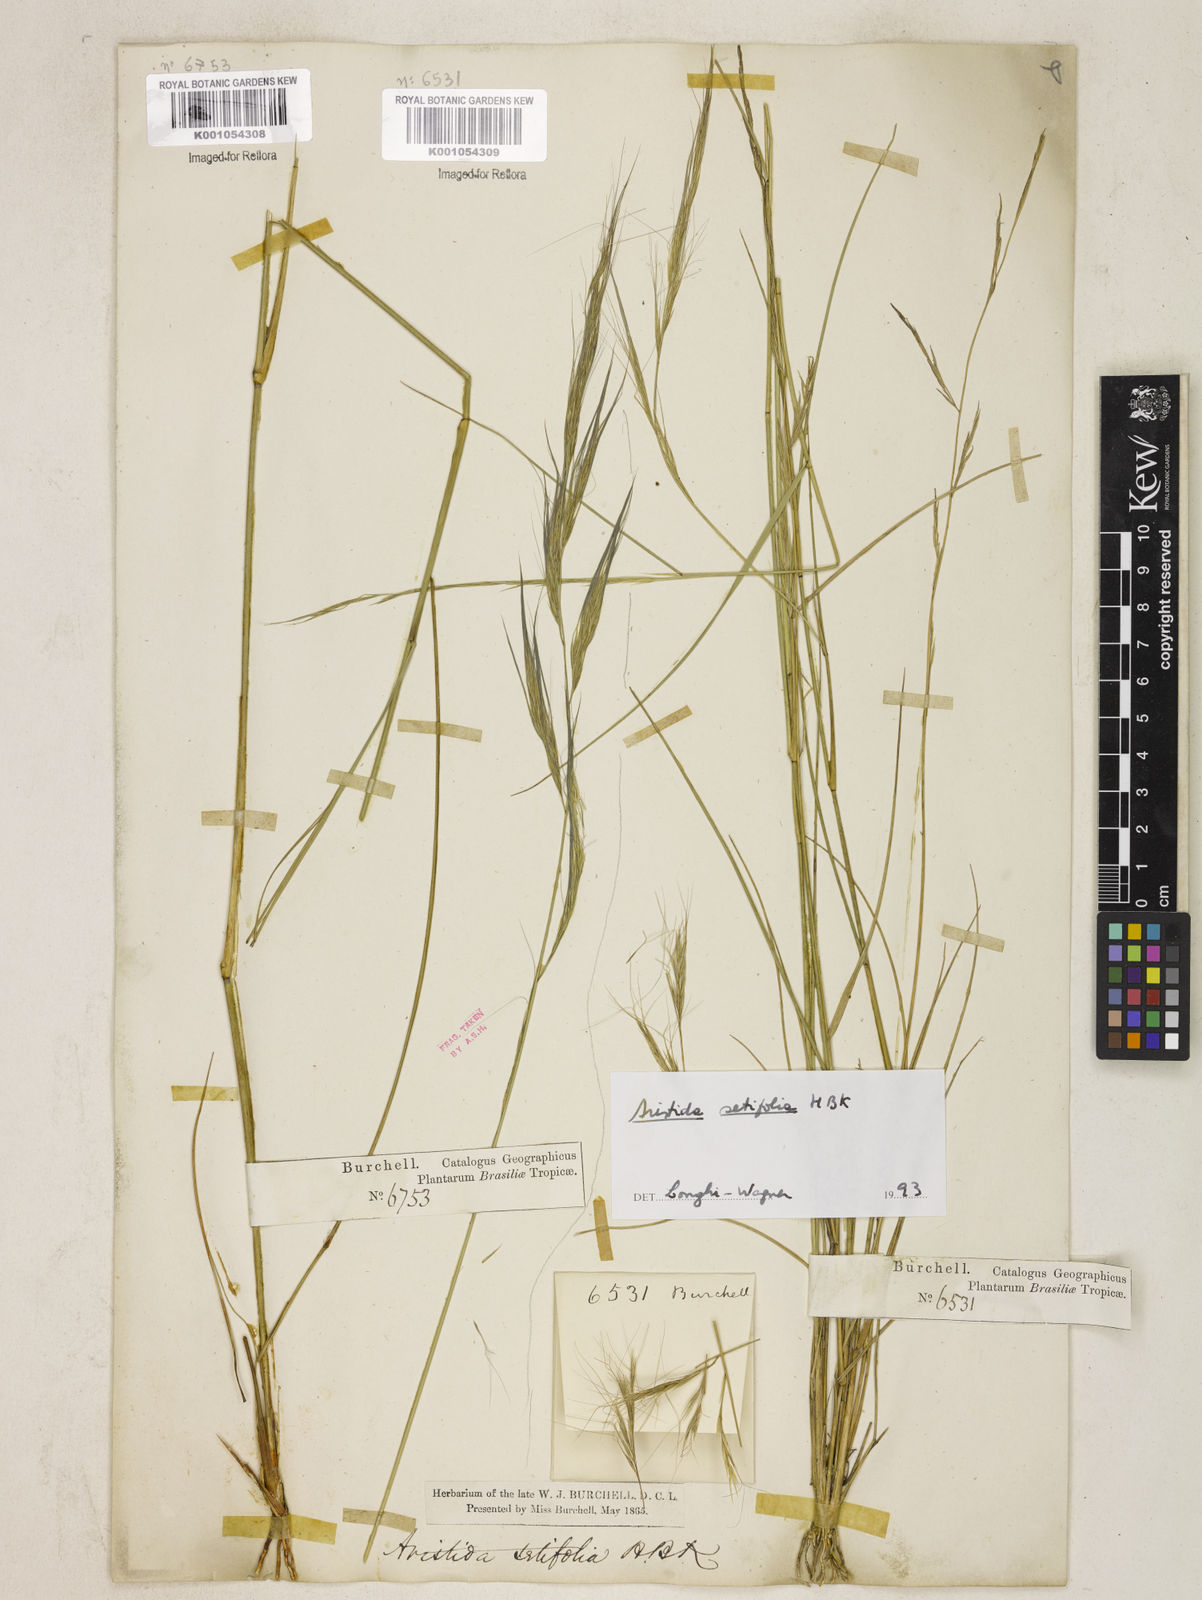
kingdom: Plantae
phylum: Tracheophyta
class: Liliopsida
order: Poales
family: Poaceae
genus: Aristida
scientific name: Aristida setifolia
